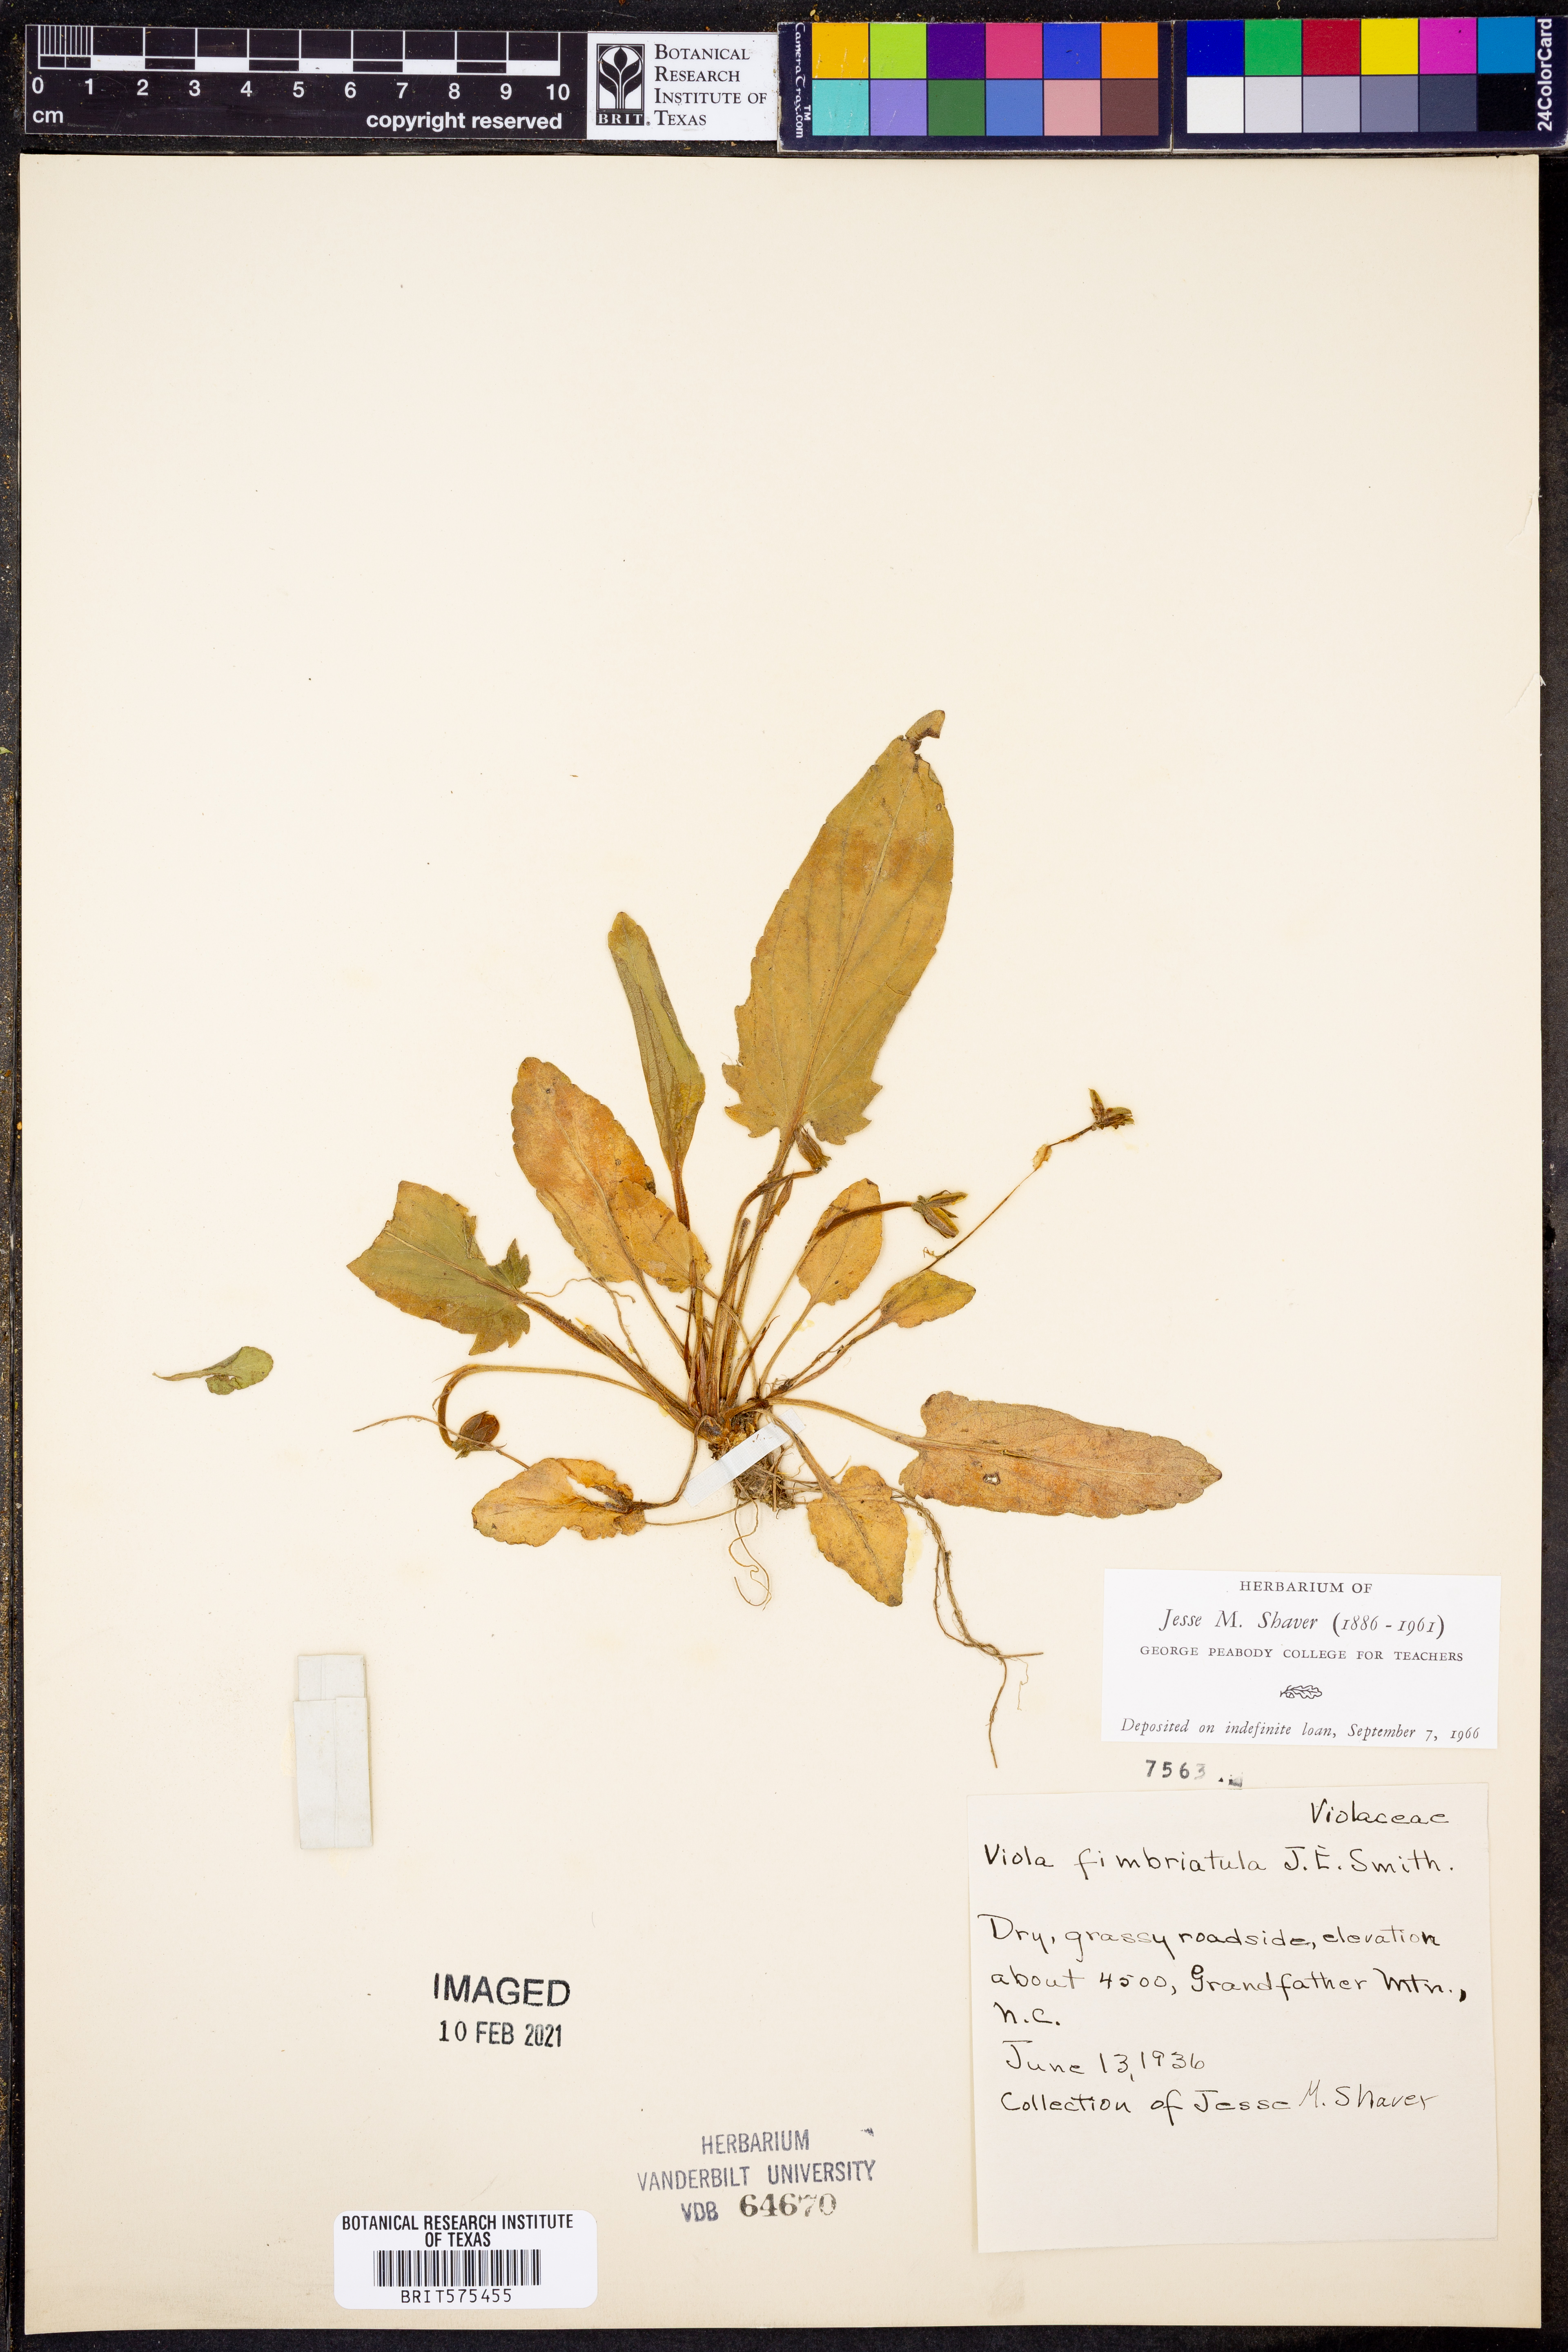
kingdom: Plantae
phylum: Tracheophyta
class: Magnoliopsida
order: Malpighiales
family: Violaceae
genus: Viola
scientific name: Viola fimbriatula
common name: Sand violet
